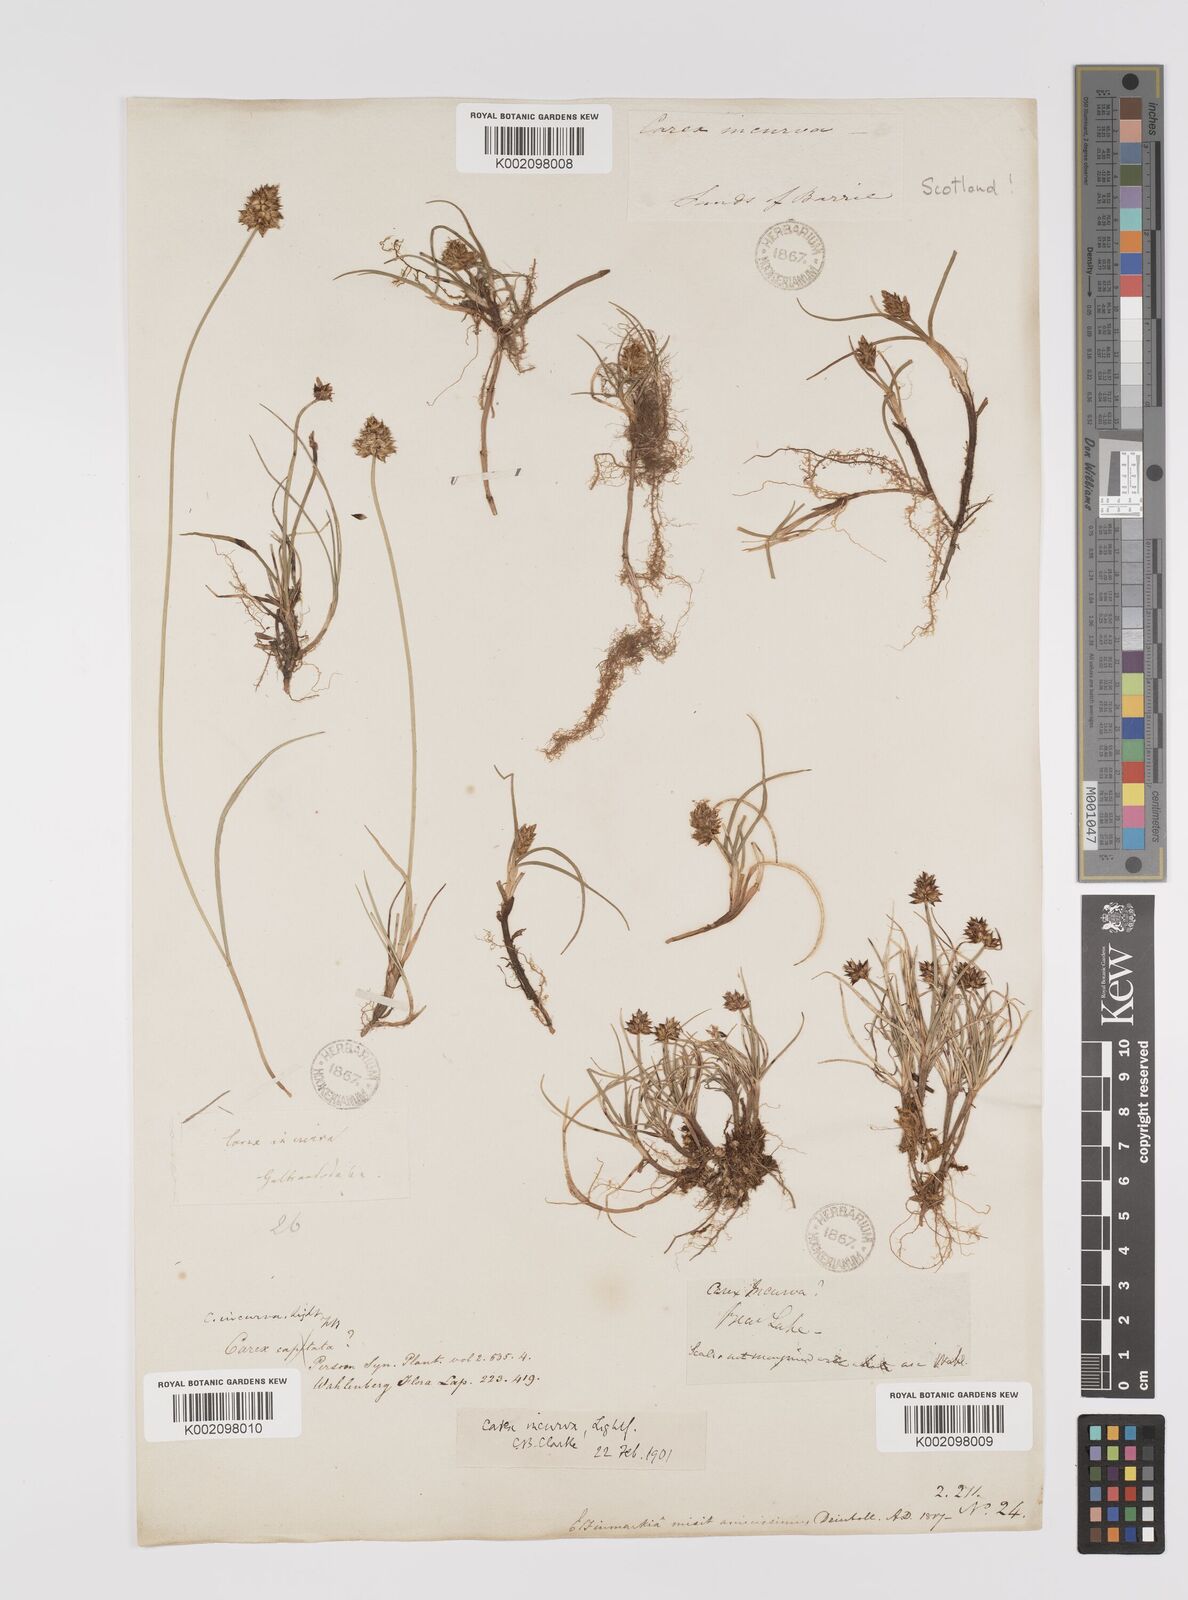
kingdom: Plantae
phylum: Tracheophyta
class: Liliopsida
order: Poales
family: Cyperaceae
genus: Carex
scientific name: Carex maritima
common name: Curved sedge
